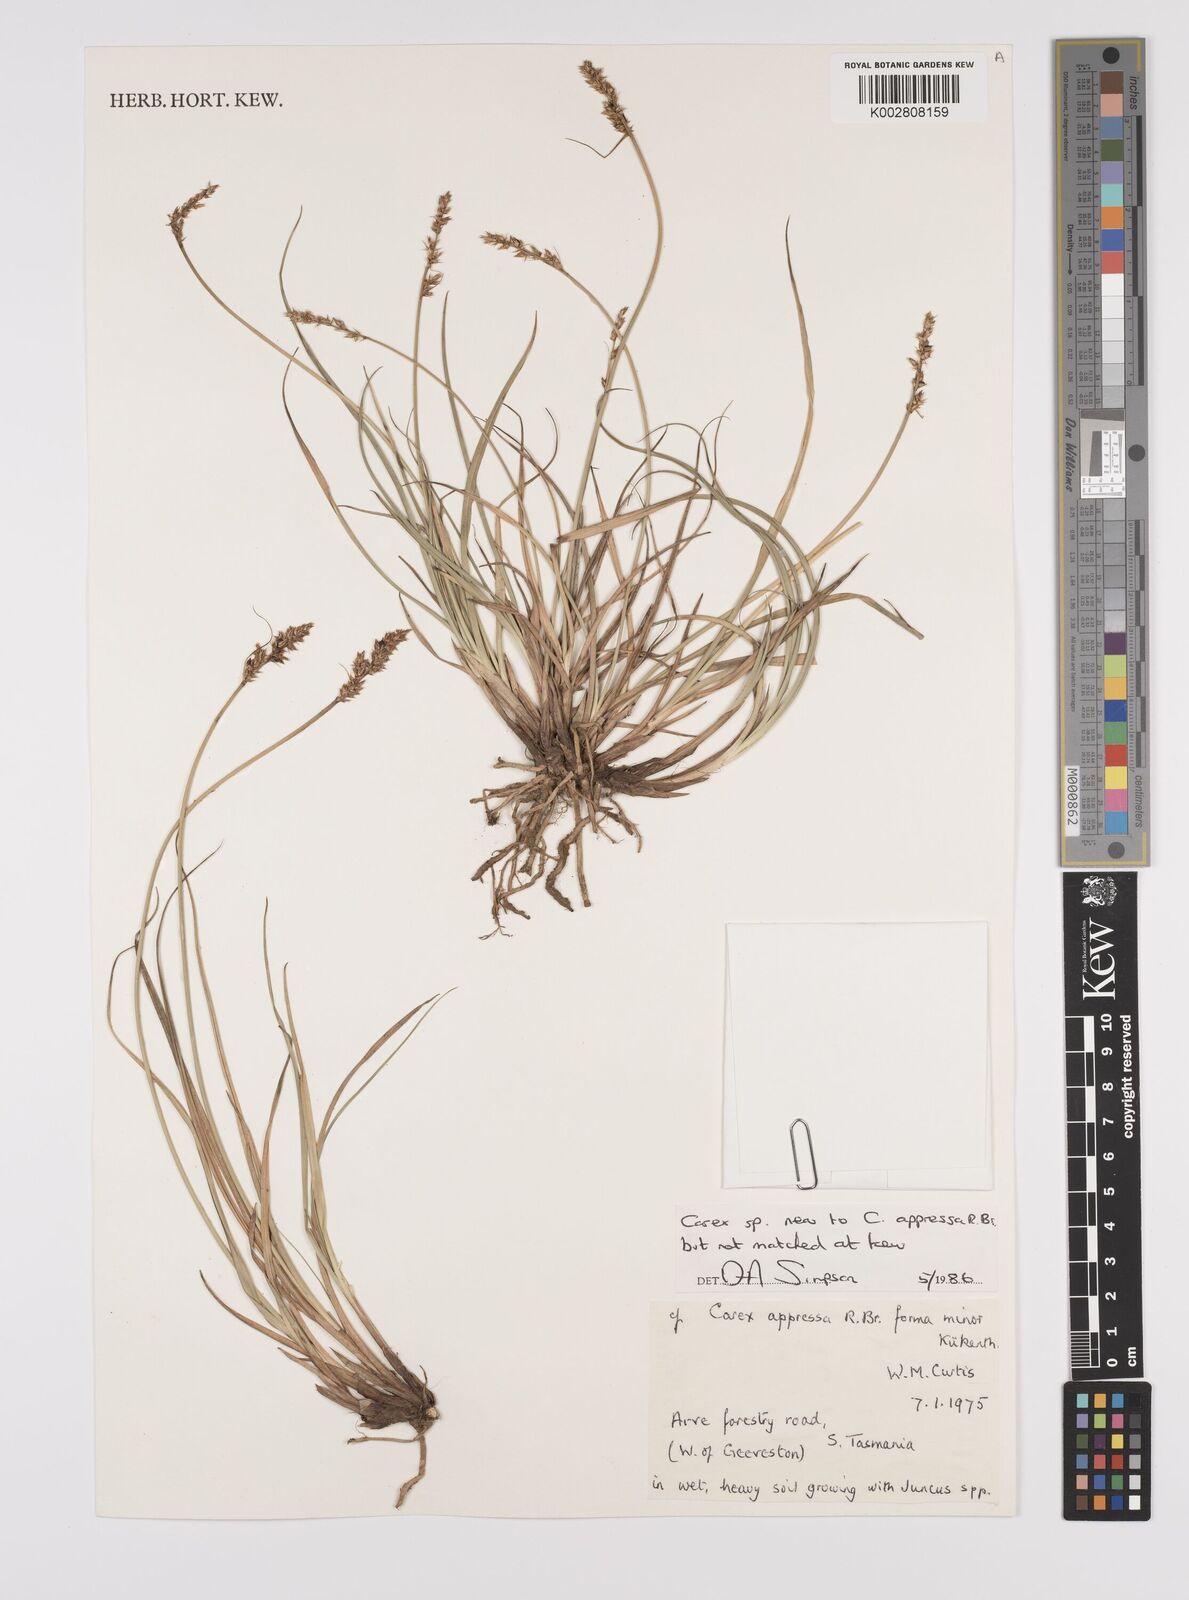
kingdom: Plantae
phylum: Tracheophyta
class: Liliopsida
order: Poales
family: Cyperaceae
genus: Carex
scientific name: Carex diandra
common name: Lesser tussock-sedge
